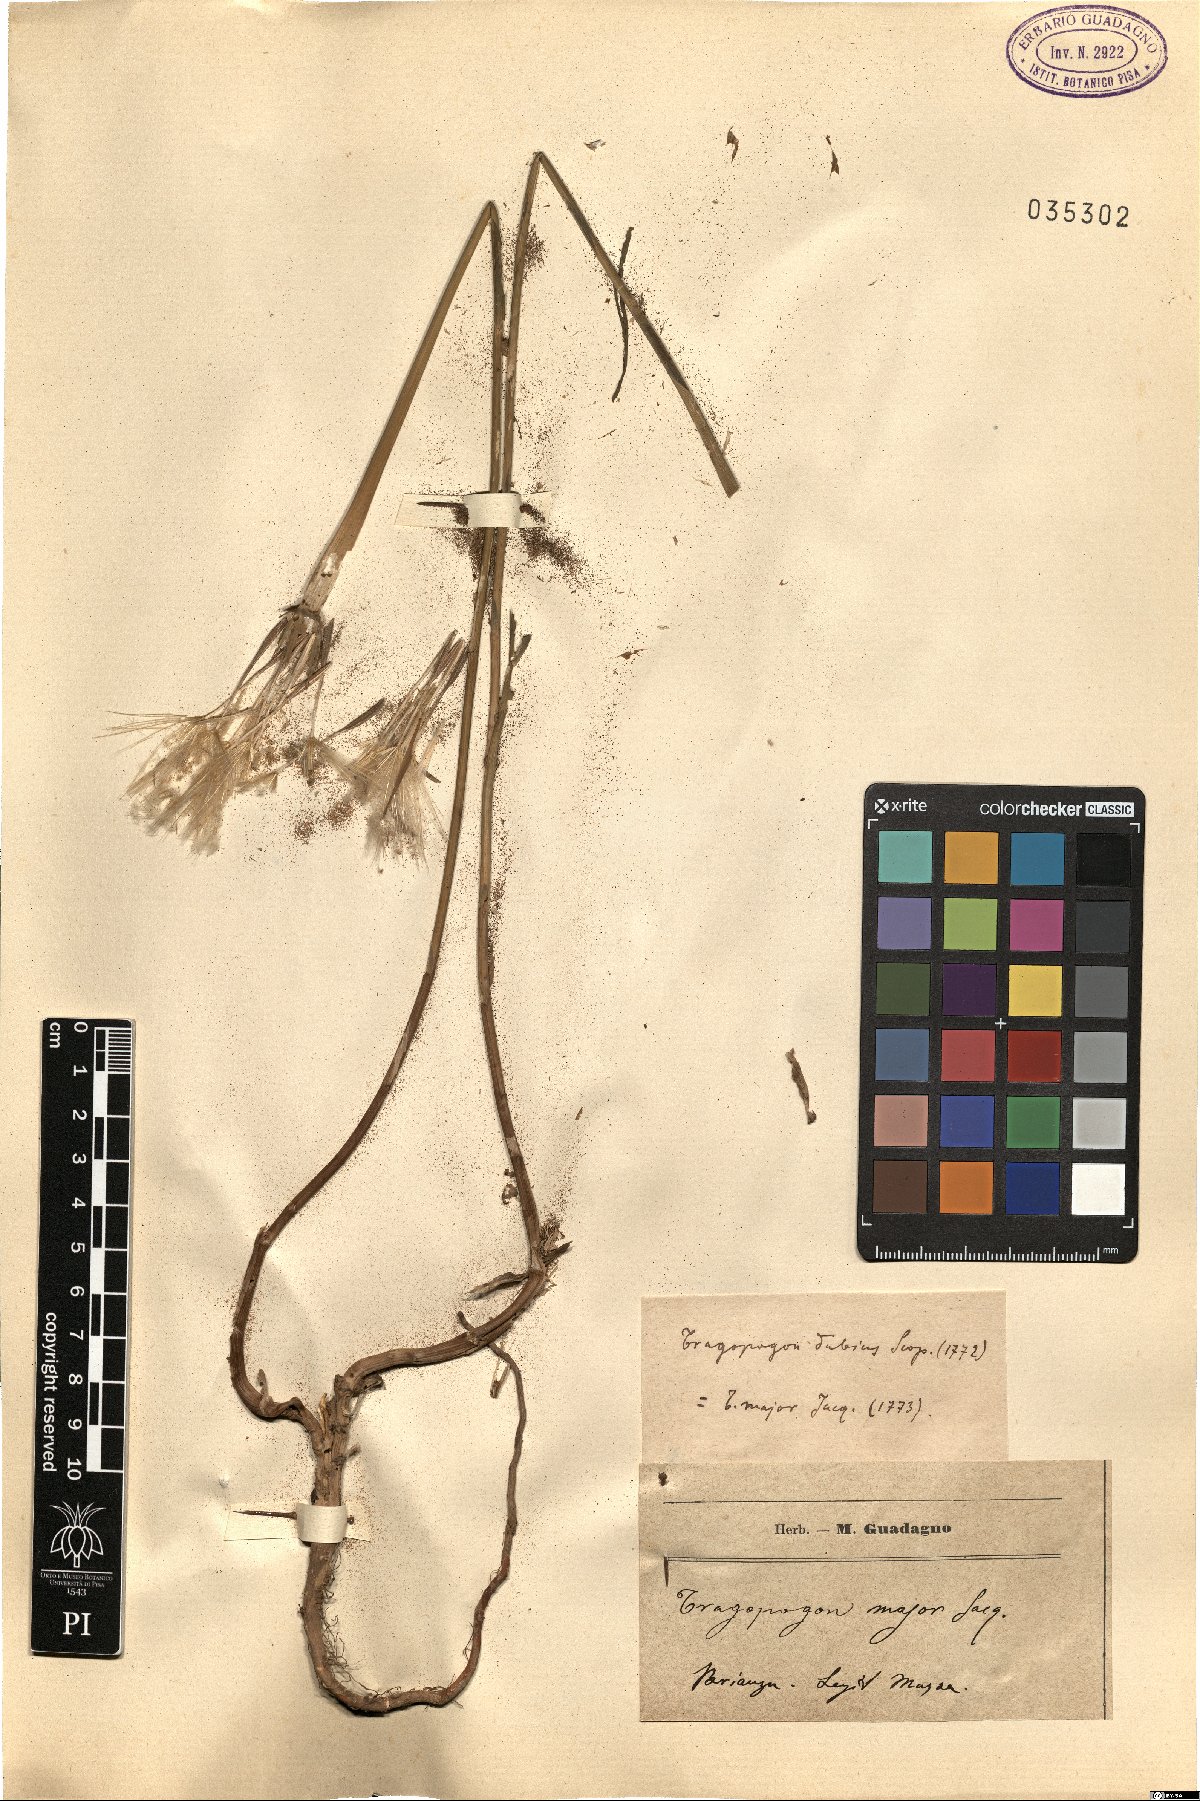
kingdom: Plantae
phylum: Tracheophyta
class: Magnoliopsida
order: Asterales
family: Asteraceae
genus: Tragopogon
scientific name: Tragopogon dubius
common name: Yellow salsify
